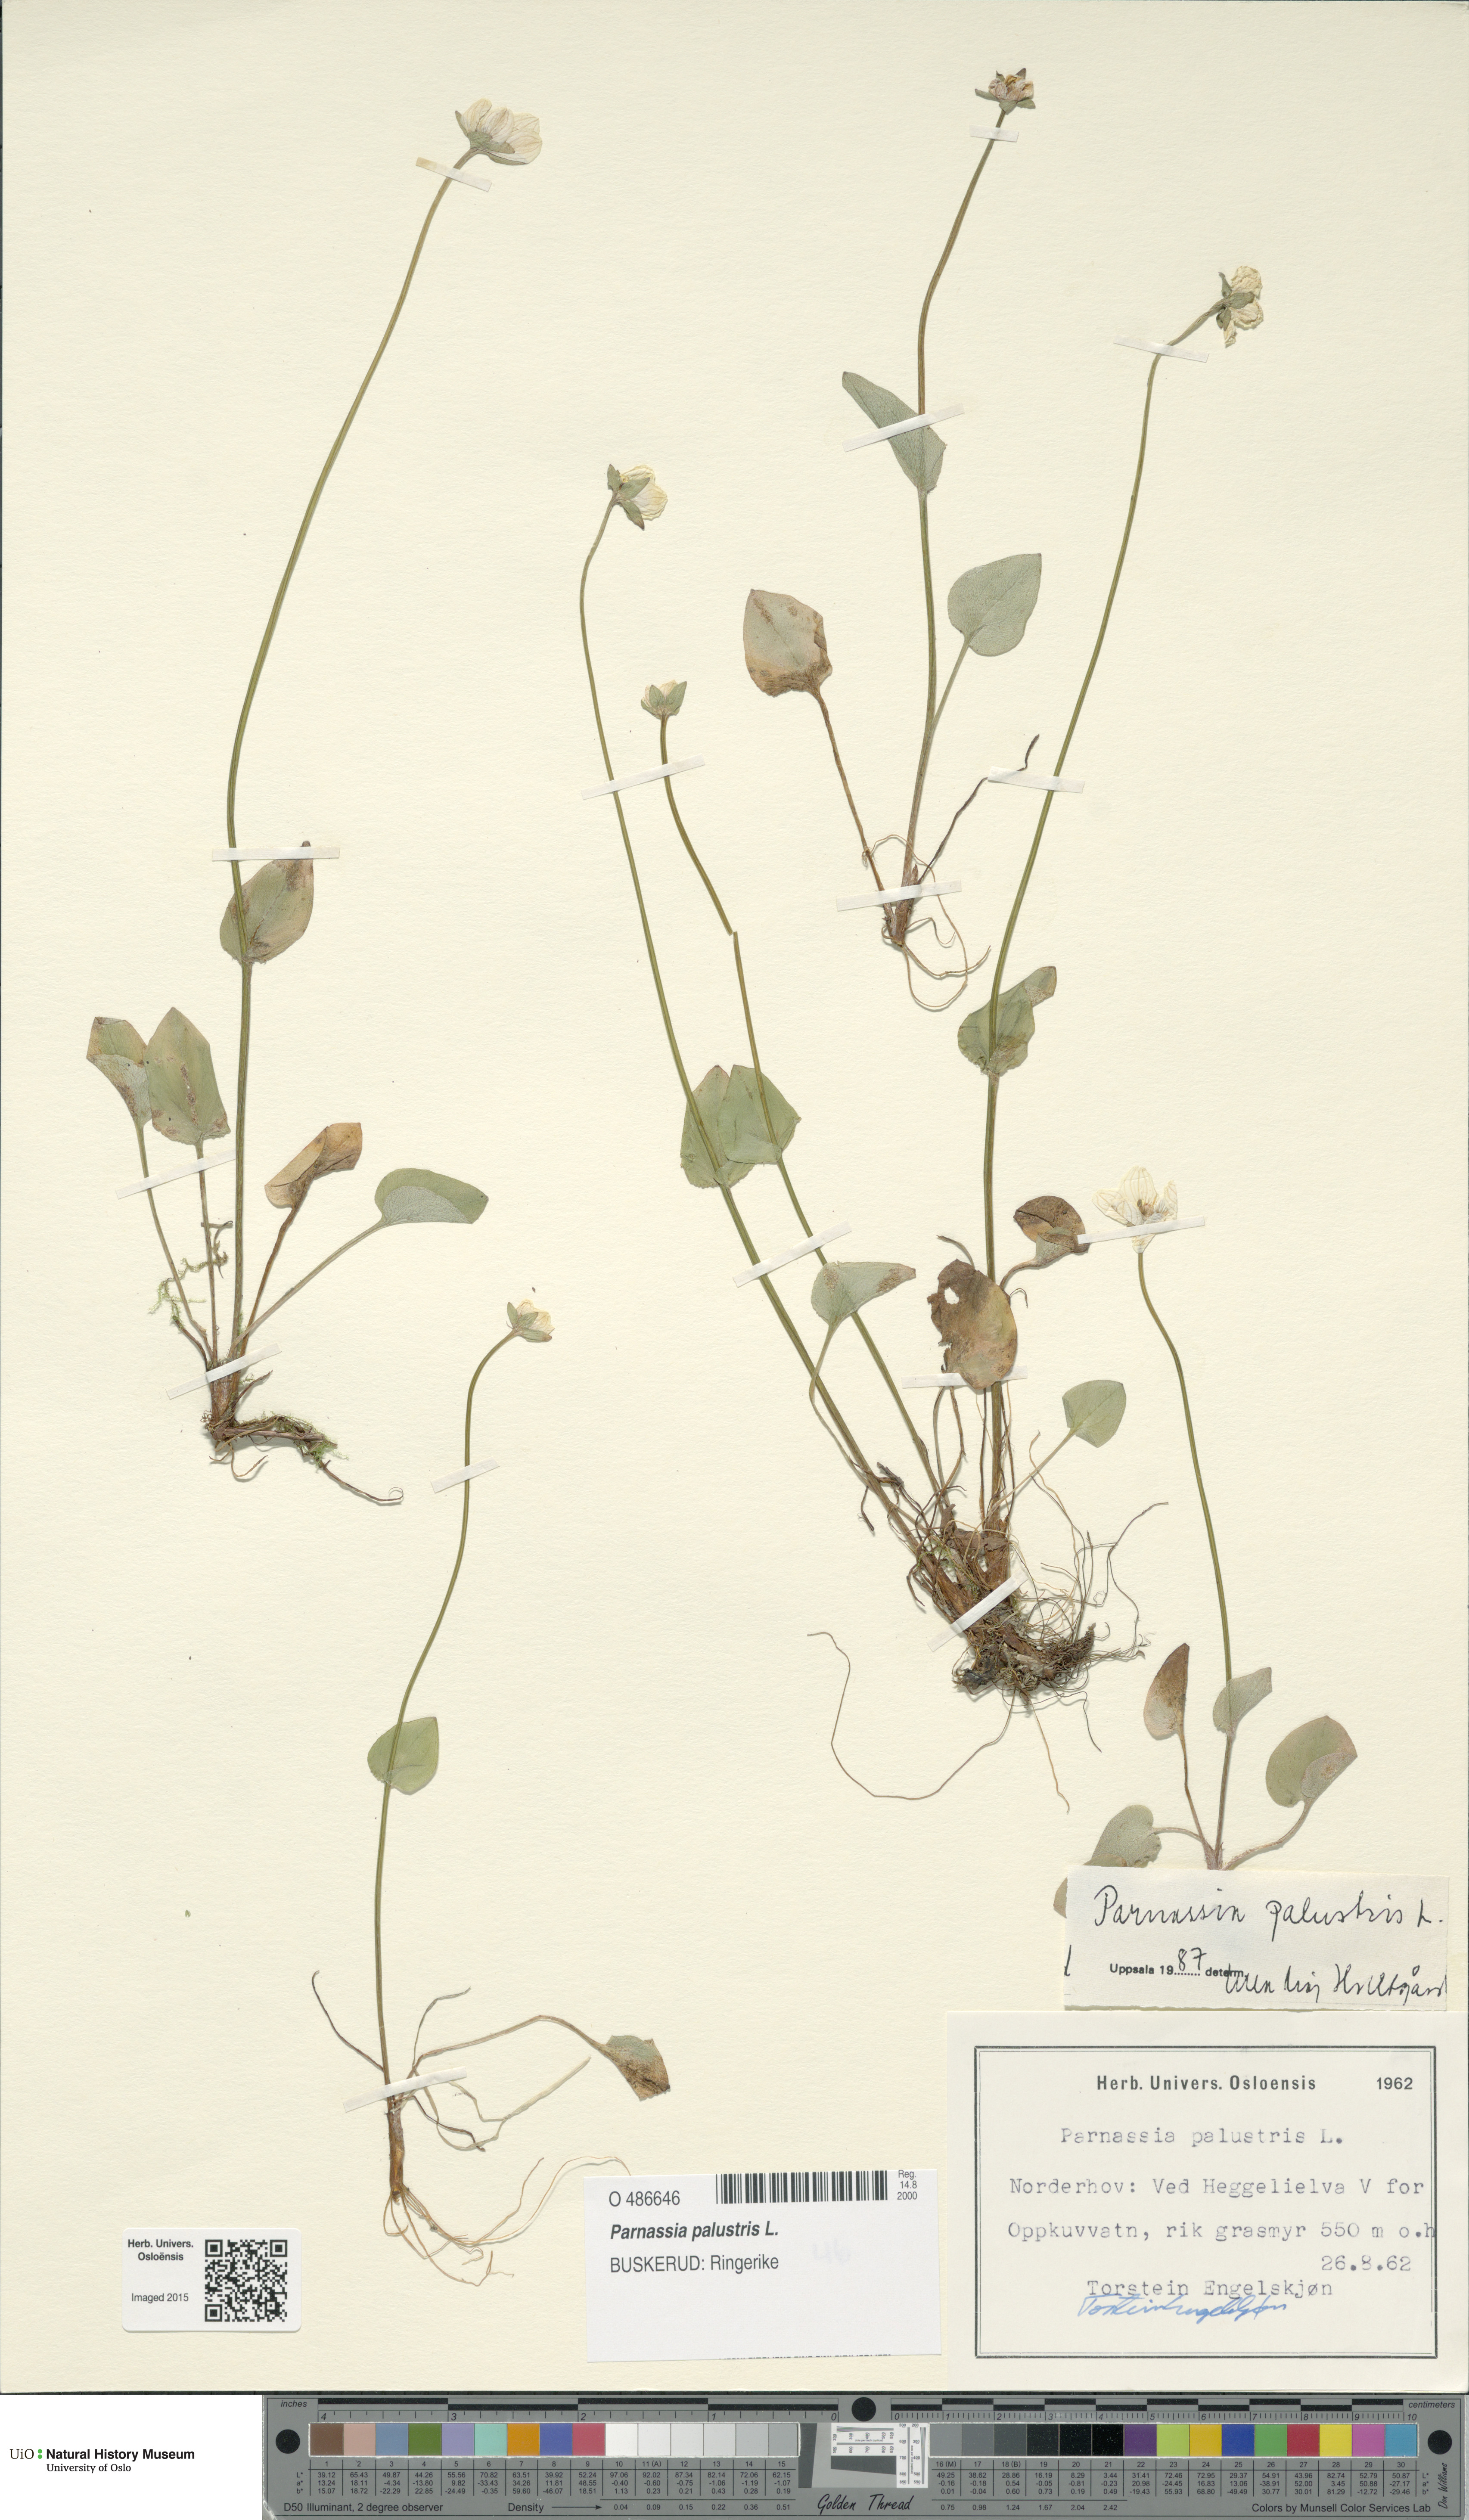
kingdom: Plantae
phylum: Tracheophyta
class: Magnoliopsida
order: Celastrales
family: Parnassiaceae
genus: Parnassia
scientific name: Parnassia palustris
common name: Grass-of-parnassus
